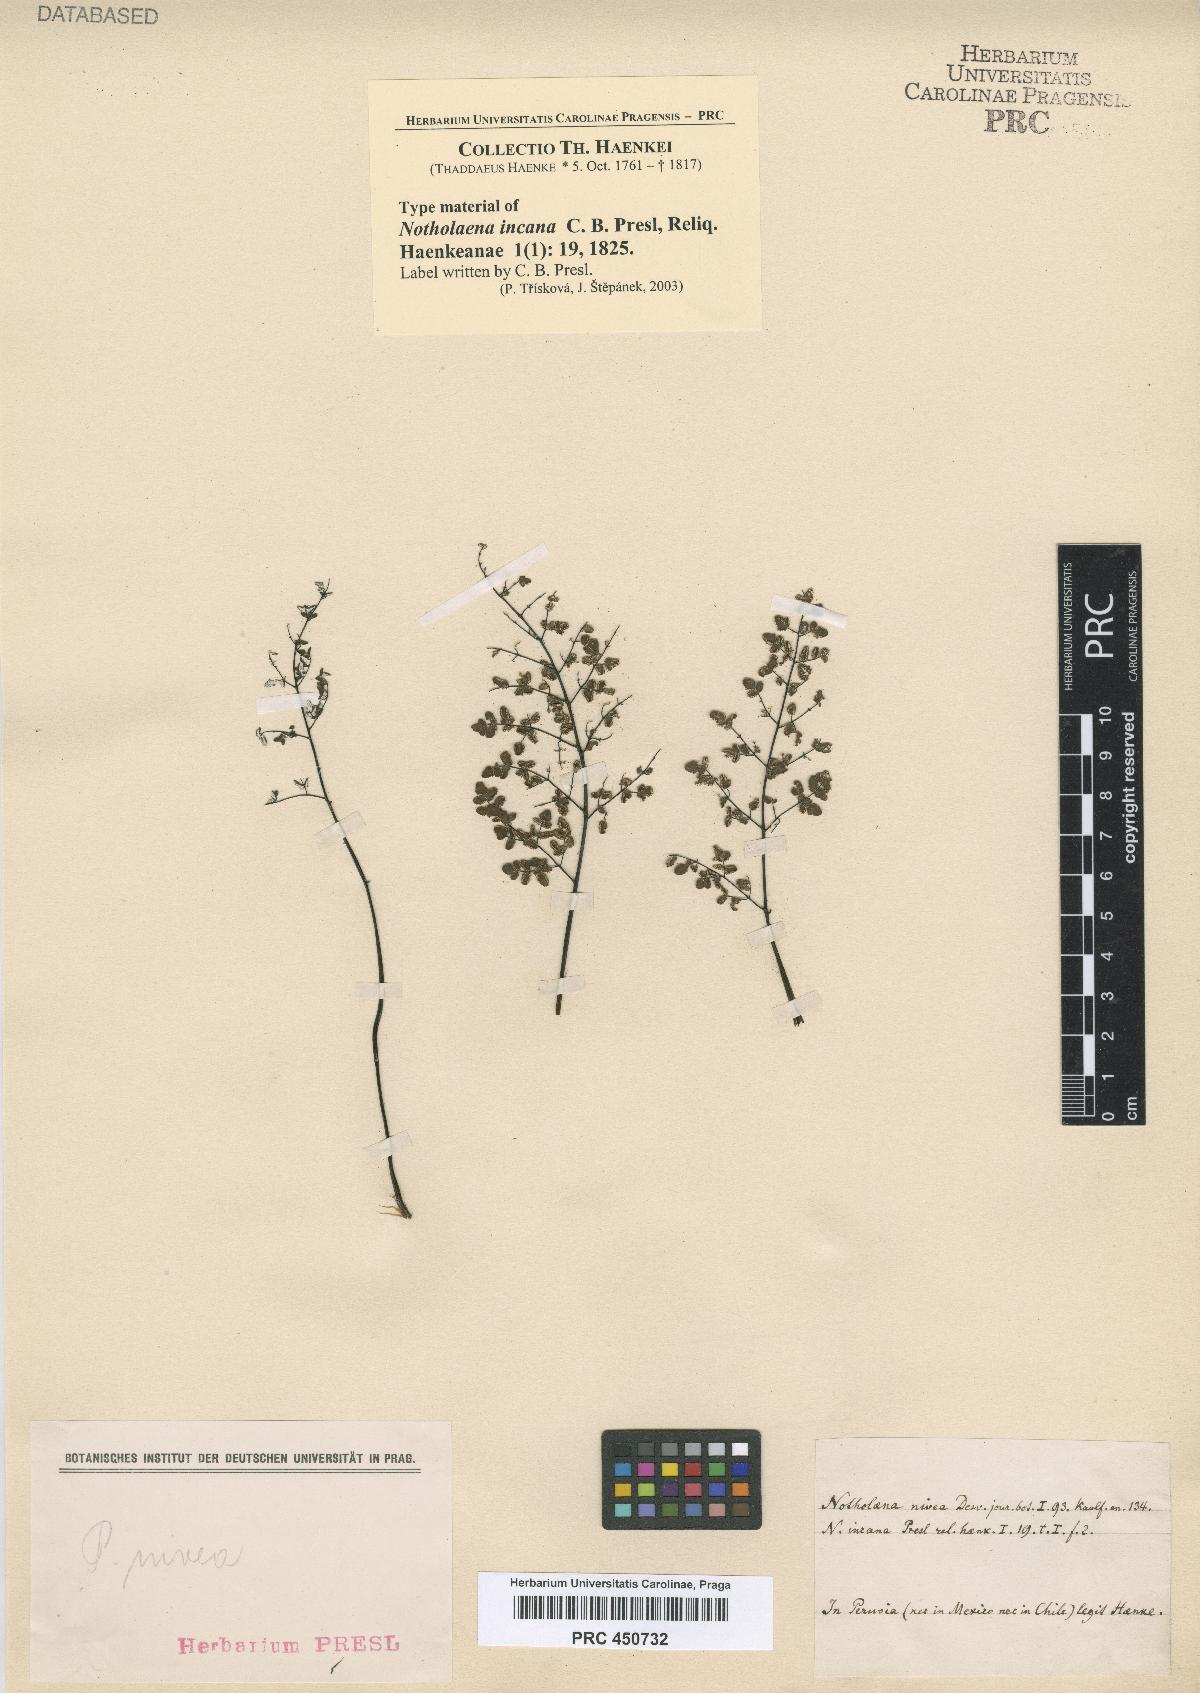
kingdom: Plantae
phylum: Tracheophyta
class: Polypodiopsida
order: Polypodiales
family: Pteridaceae
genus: Argyrochosma
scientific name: Argyrochosma incana
